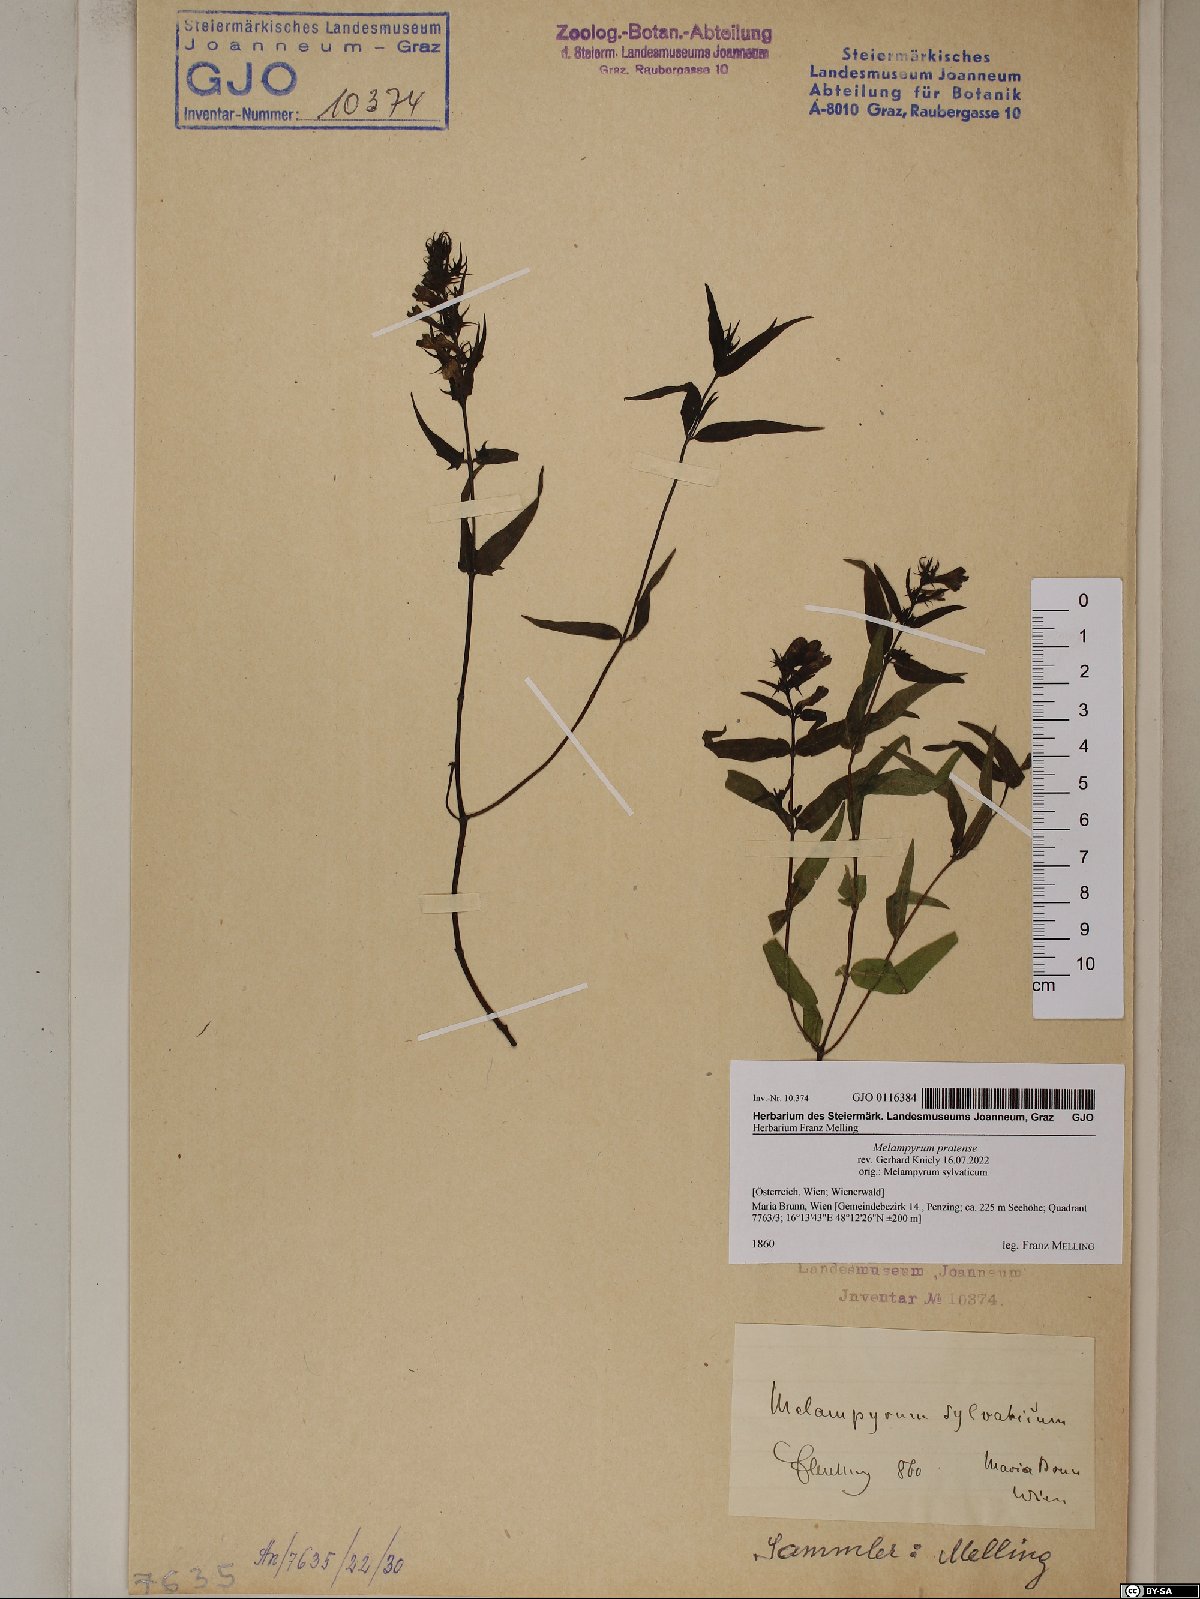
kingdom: Plantae
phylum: Tracheophyta
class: Magnoliopsida
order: Lamiales
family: Orobanchaceae
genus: Melampyrum
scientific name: Melampyrum pratense
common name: Common cow-wheat
